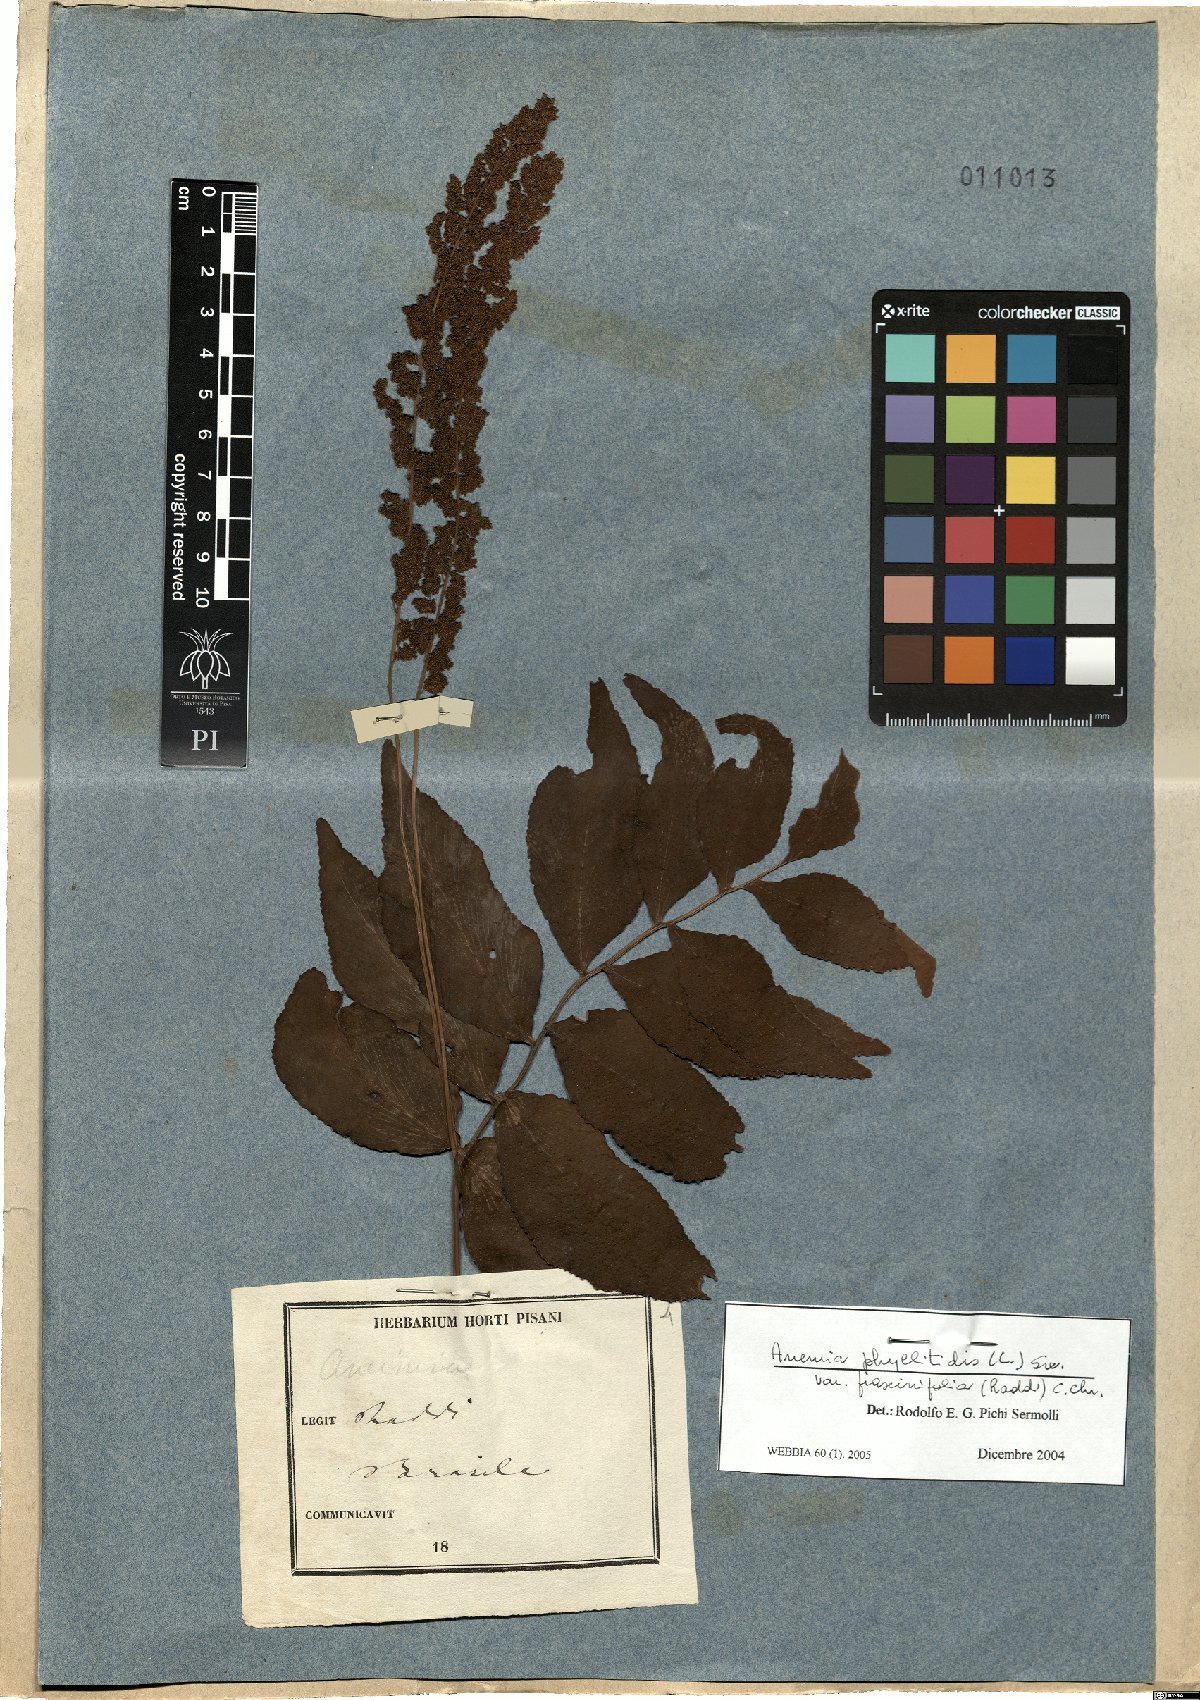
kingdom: Plantae
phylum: Tracheophyta
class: Polypodiopsida
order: Schizaeales
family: Anemiaceae
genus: Anemia
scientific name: Anemia phyllitidis
